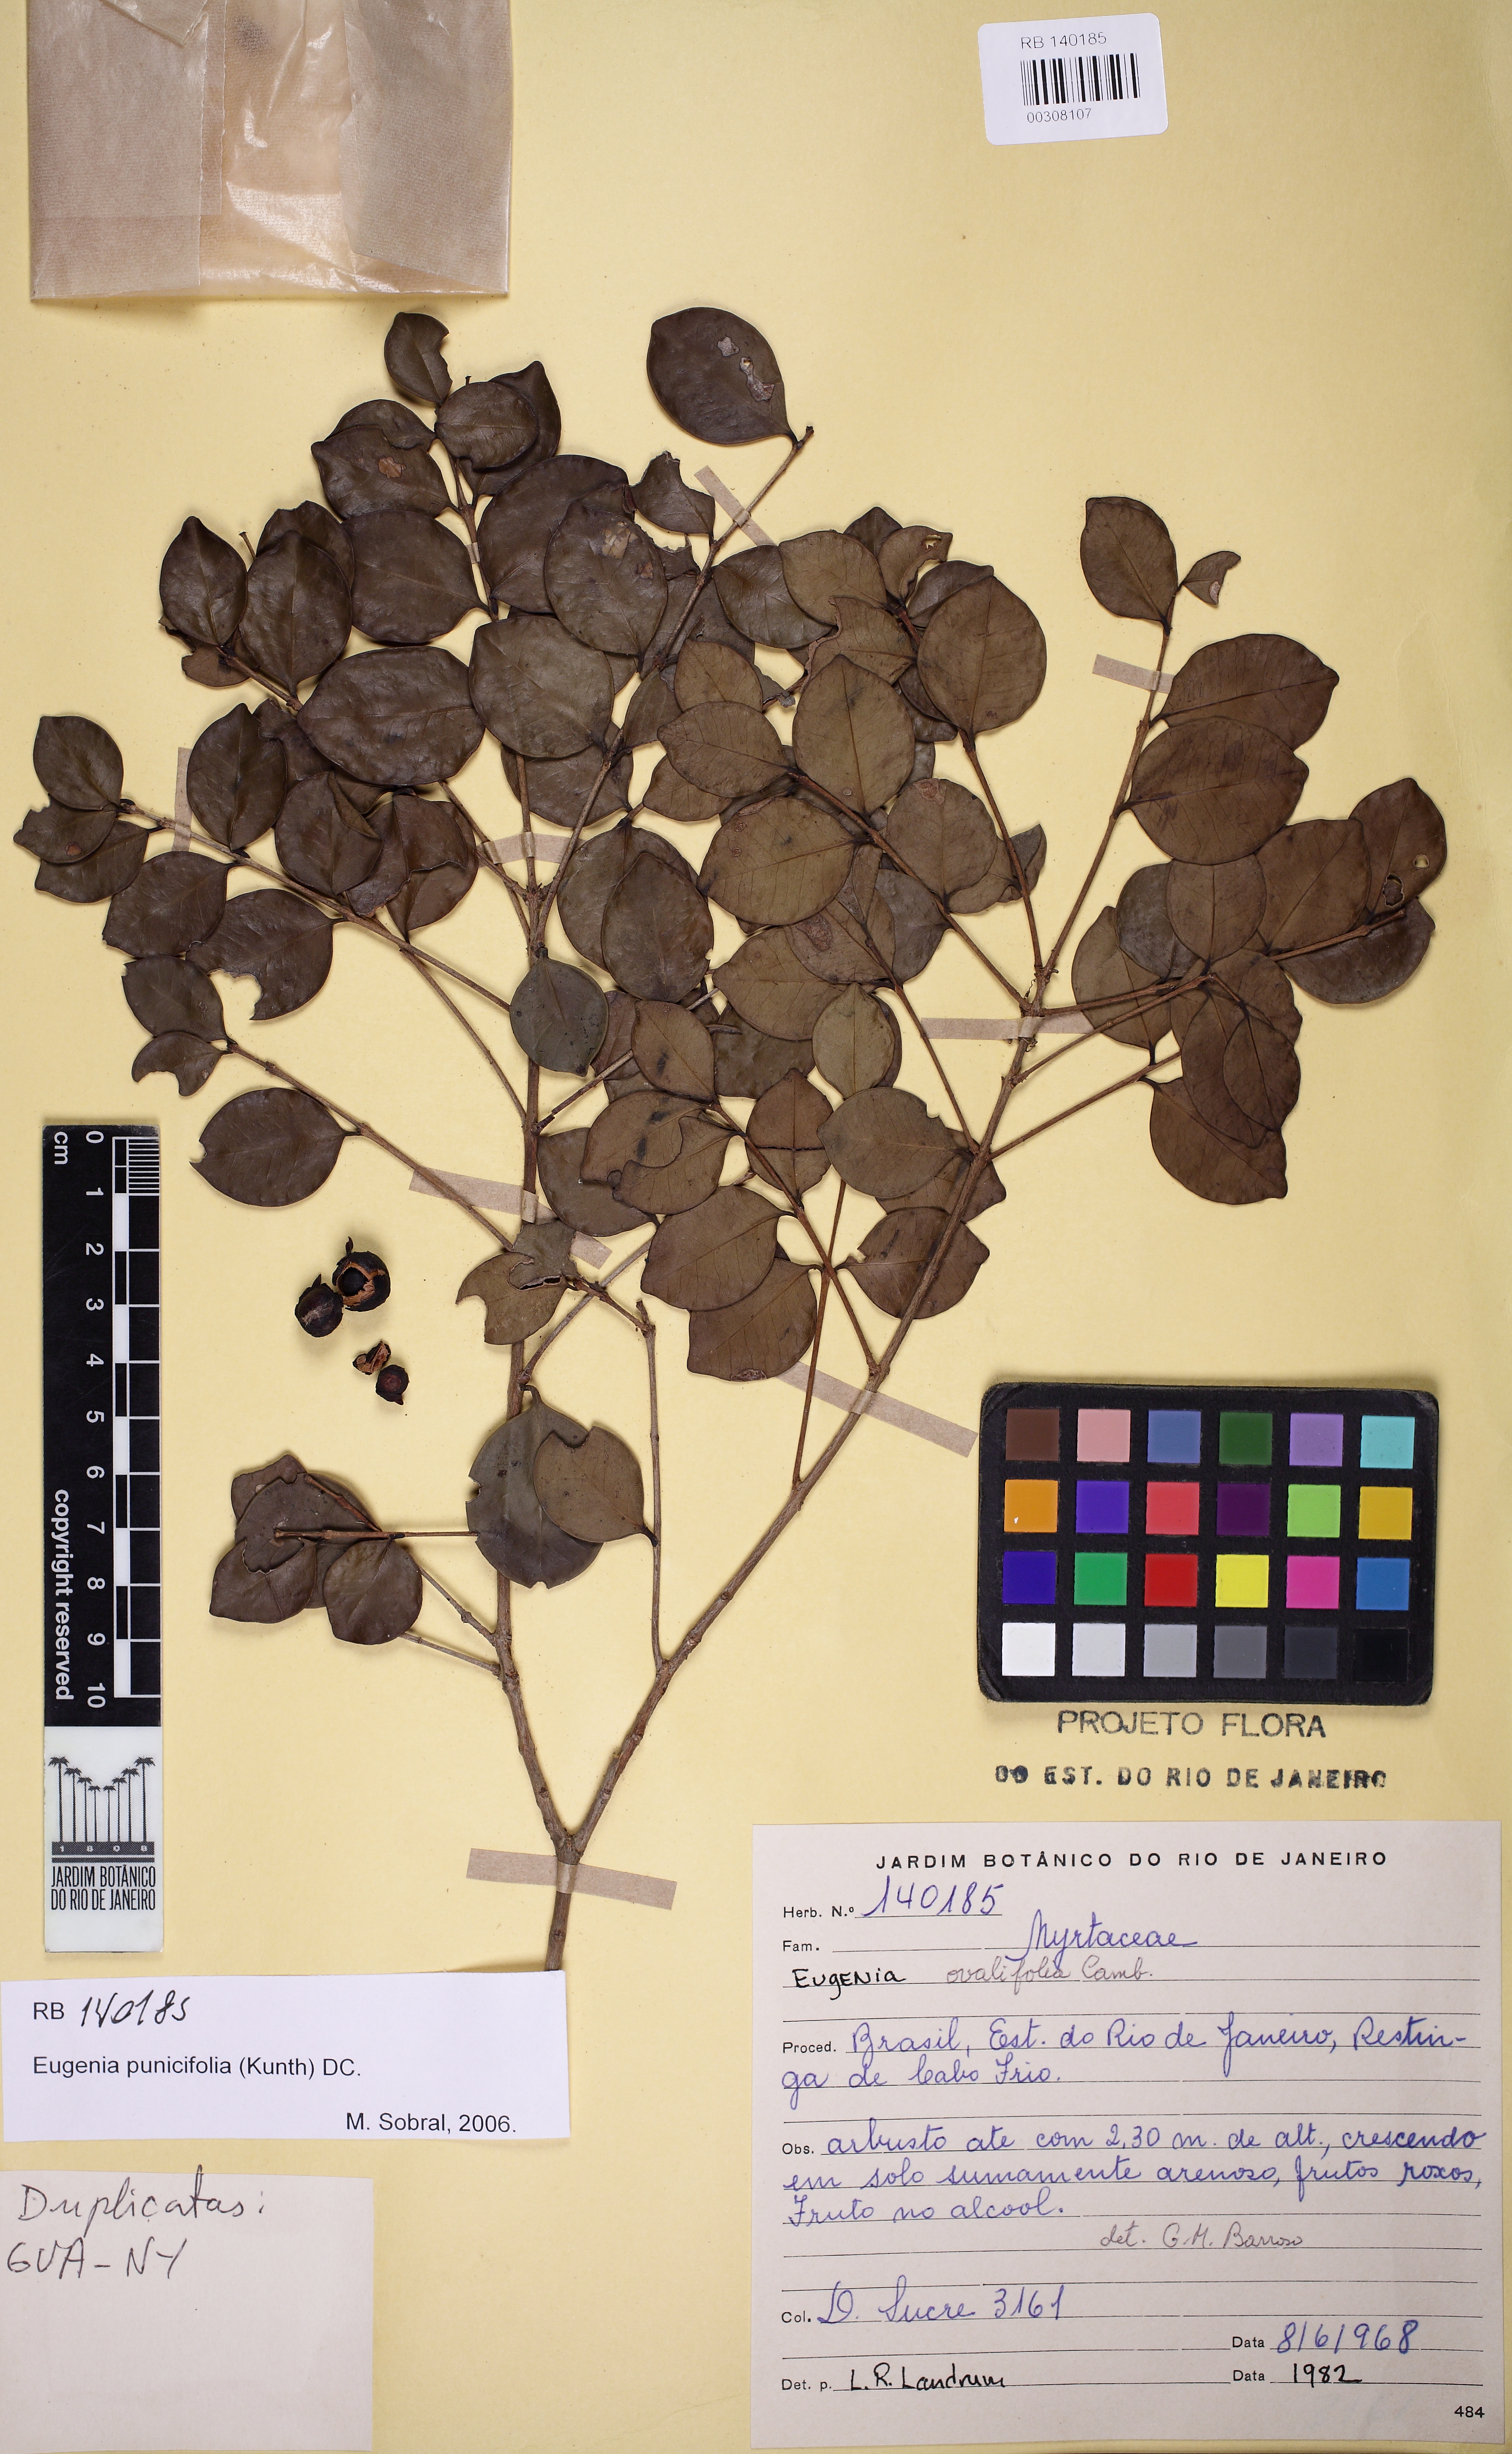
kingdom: Plantae
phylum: Tracheophyta
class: Magnoliopsida
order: Myrtales
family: Myrtaceae
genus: Eugenia
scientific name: Eugenia punicifolia
